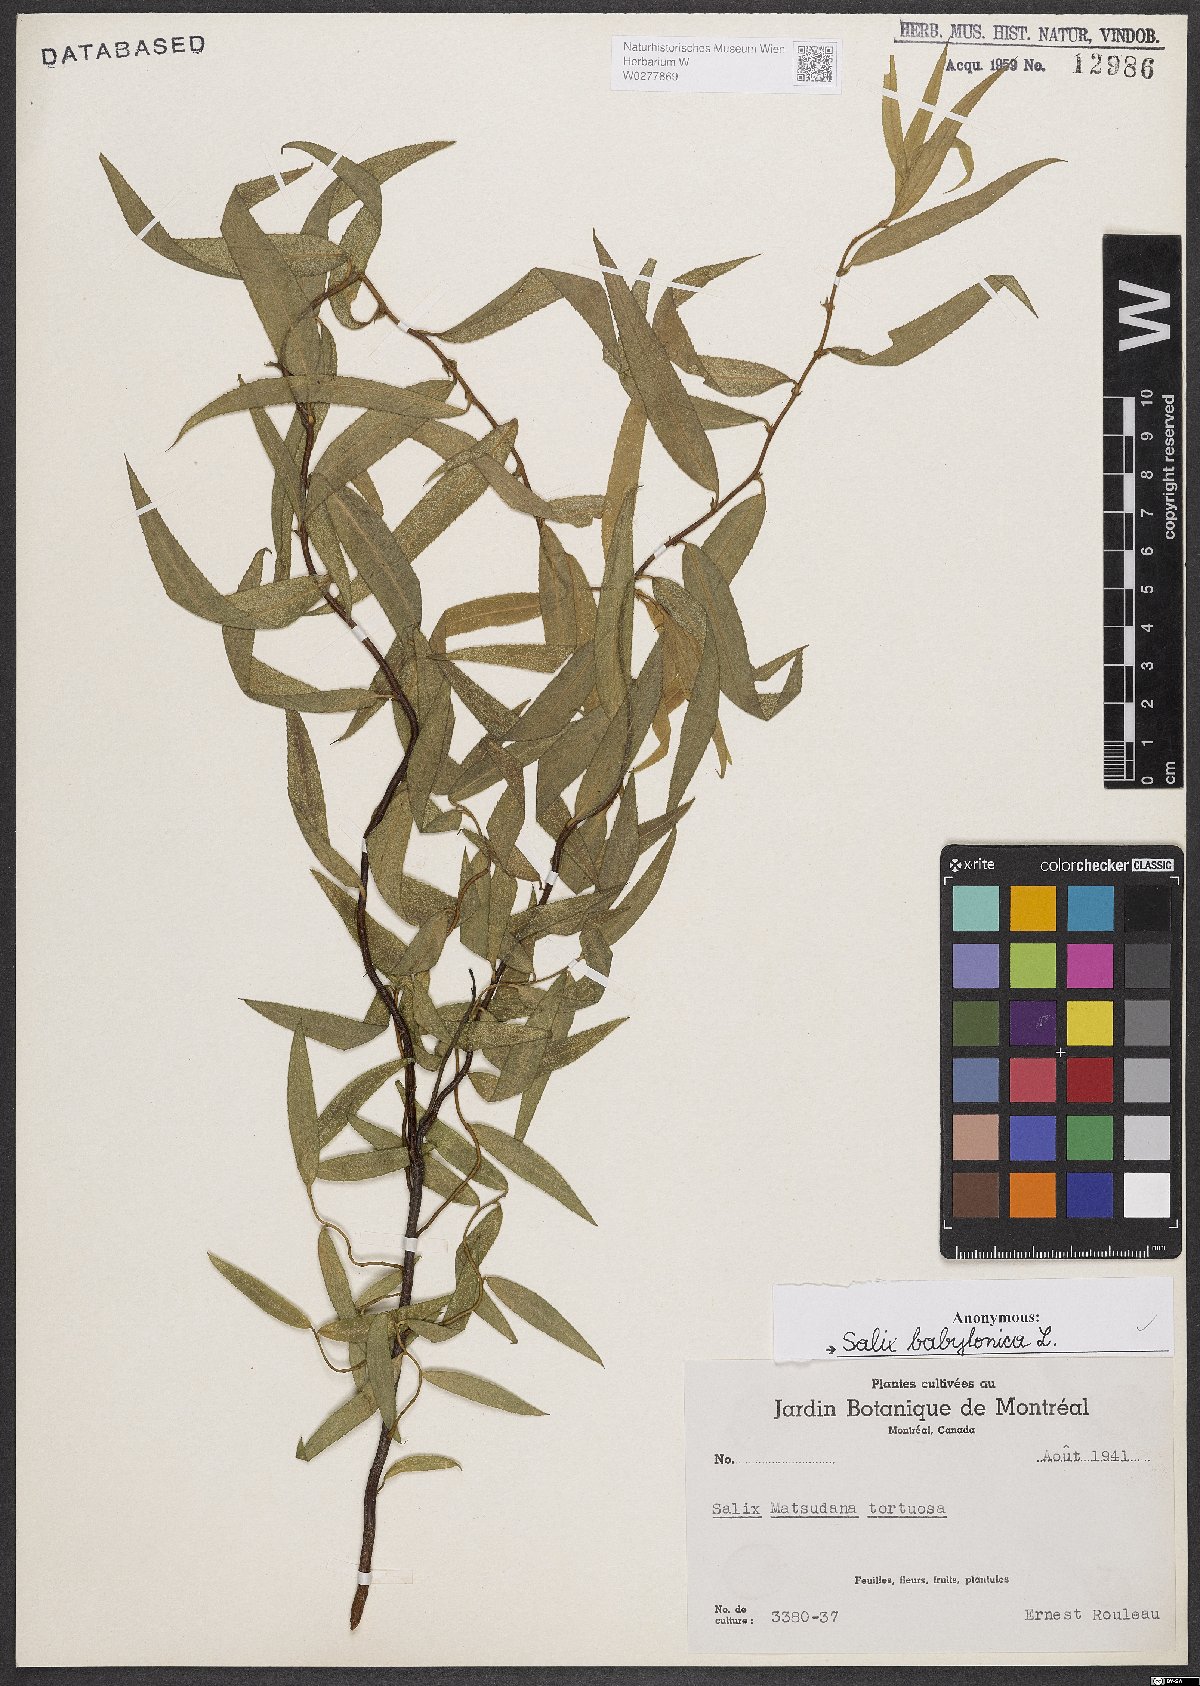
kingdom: Plantae
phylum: Tracheophyta
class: Magnoliopsida
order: Malpighiales
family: Salicaceae
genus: Salix
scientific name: Salix babylonica
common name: Weeping willow
